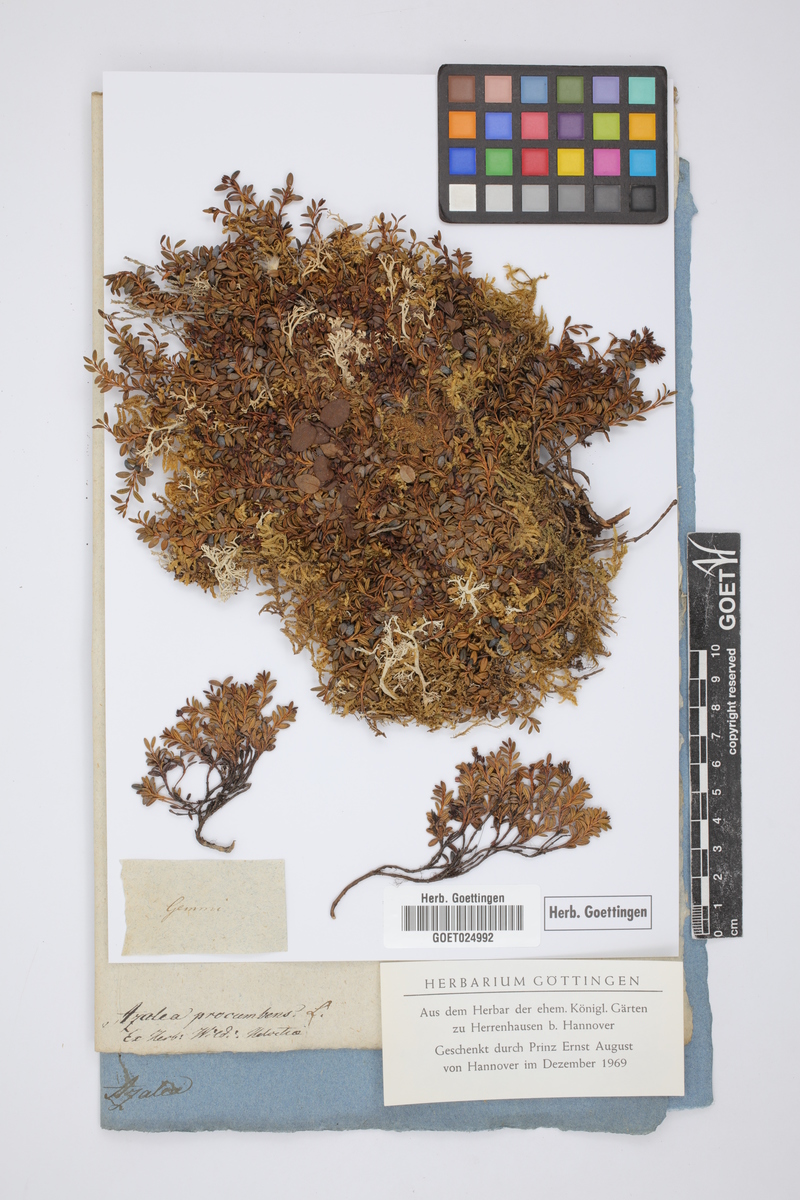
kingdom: Plantae
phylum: Tracheophyta
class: Magnoliopsida
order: Ericales
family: Ericaceae
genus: Kalmia
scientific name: Kalmia procumbens
